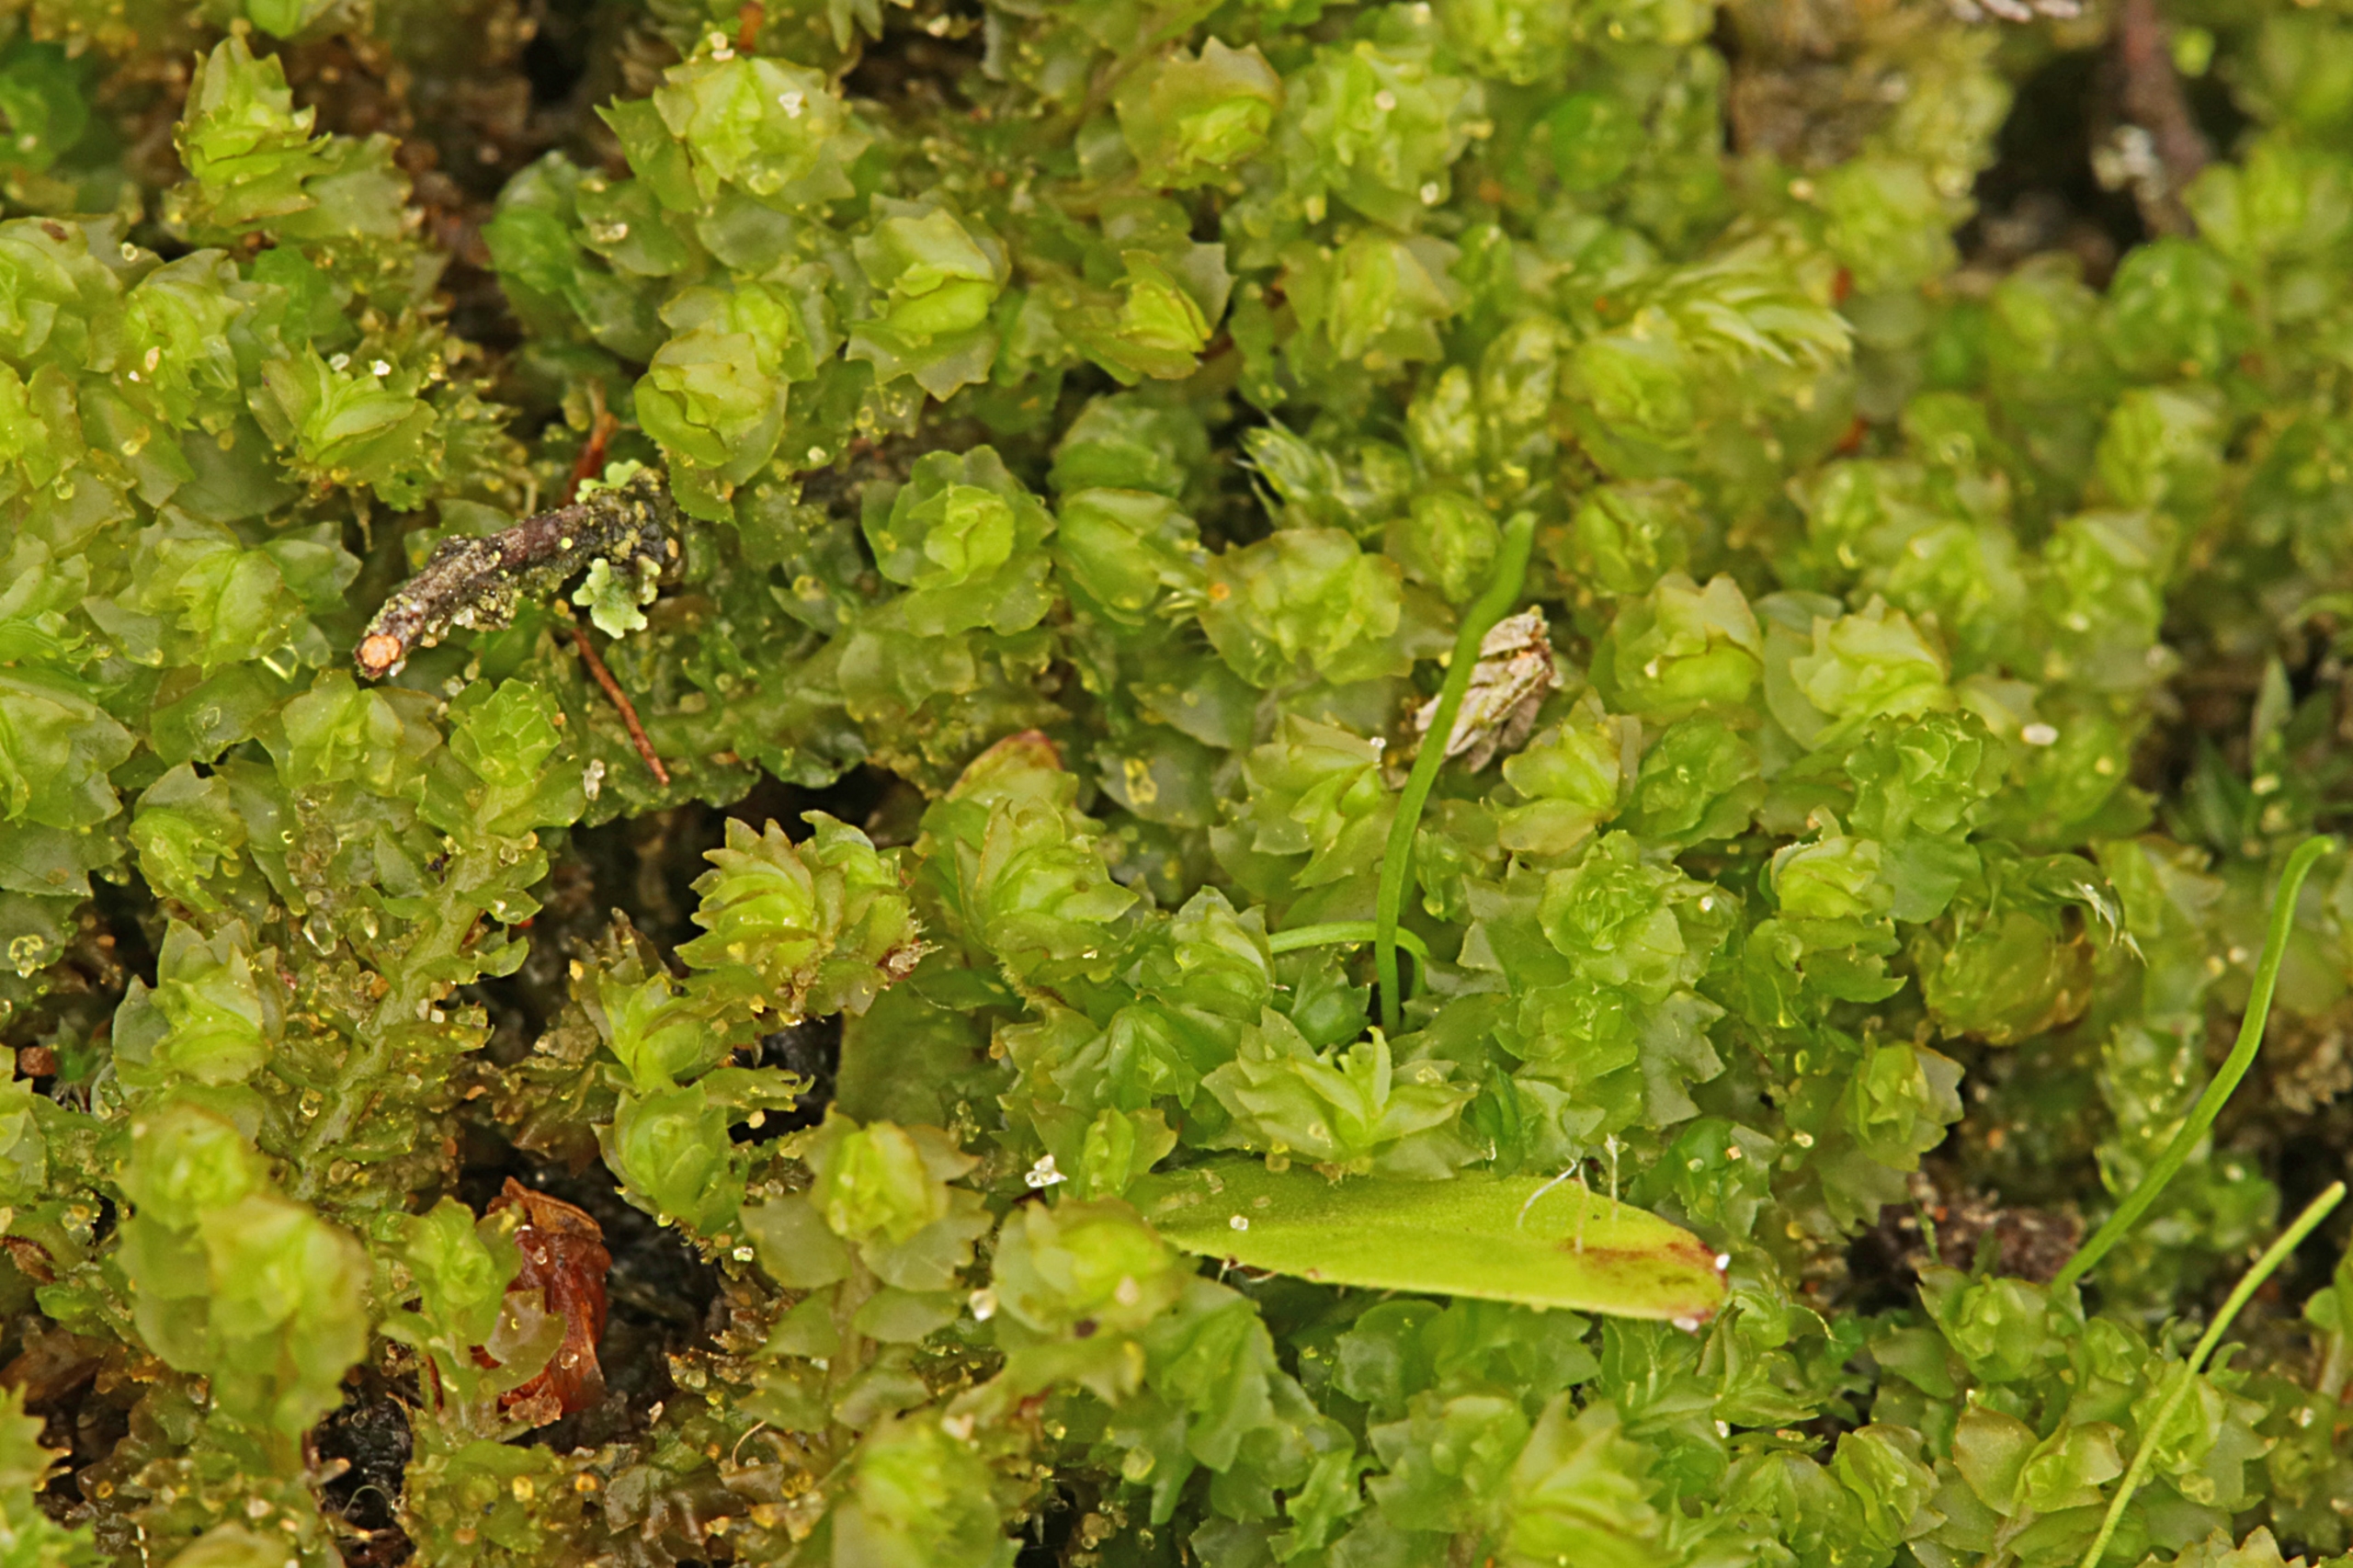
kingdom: Plantae
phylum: Marchantiophyta
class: Jungermanniopsida
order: Jungermanniales
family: Anastrophyllaceae
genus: Barbilophozia
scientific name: Barbilophozia barbata
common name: Skægget flerfligmos
